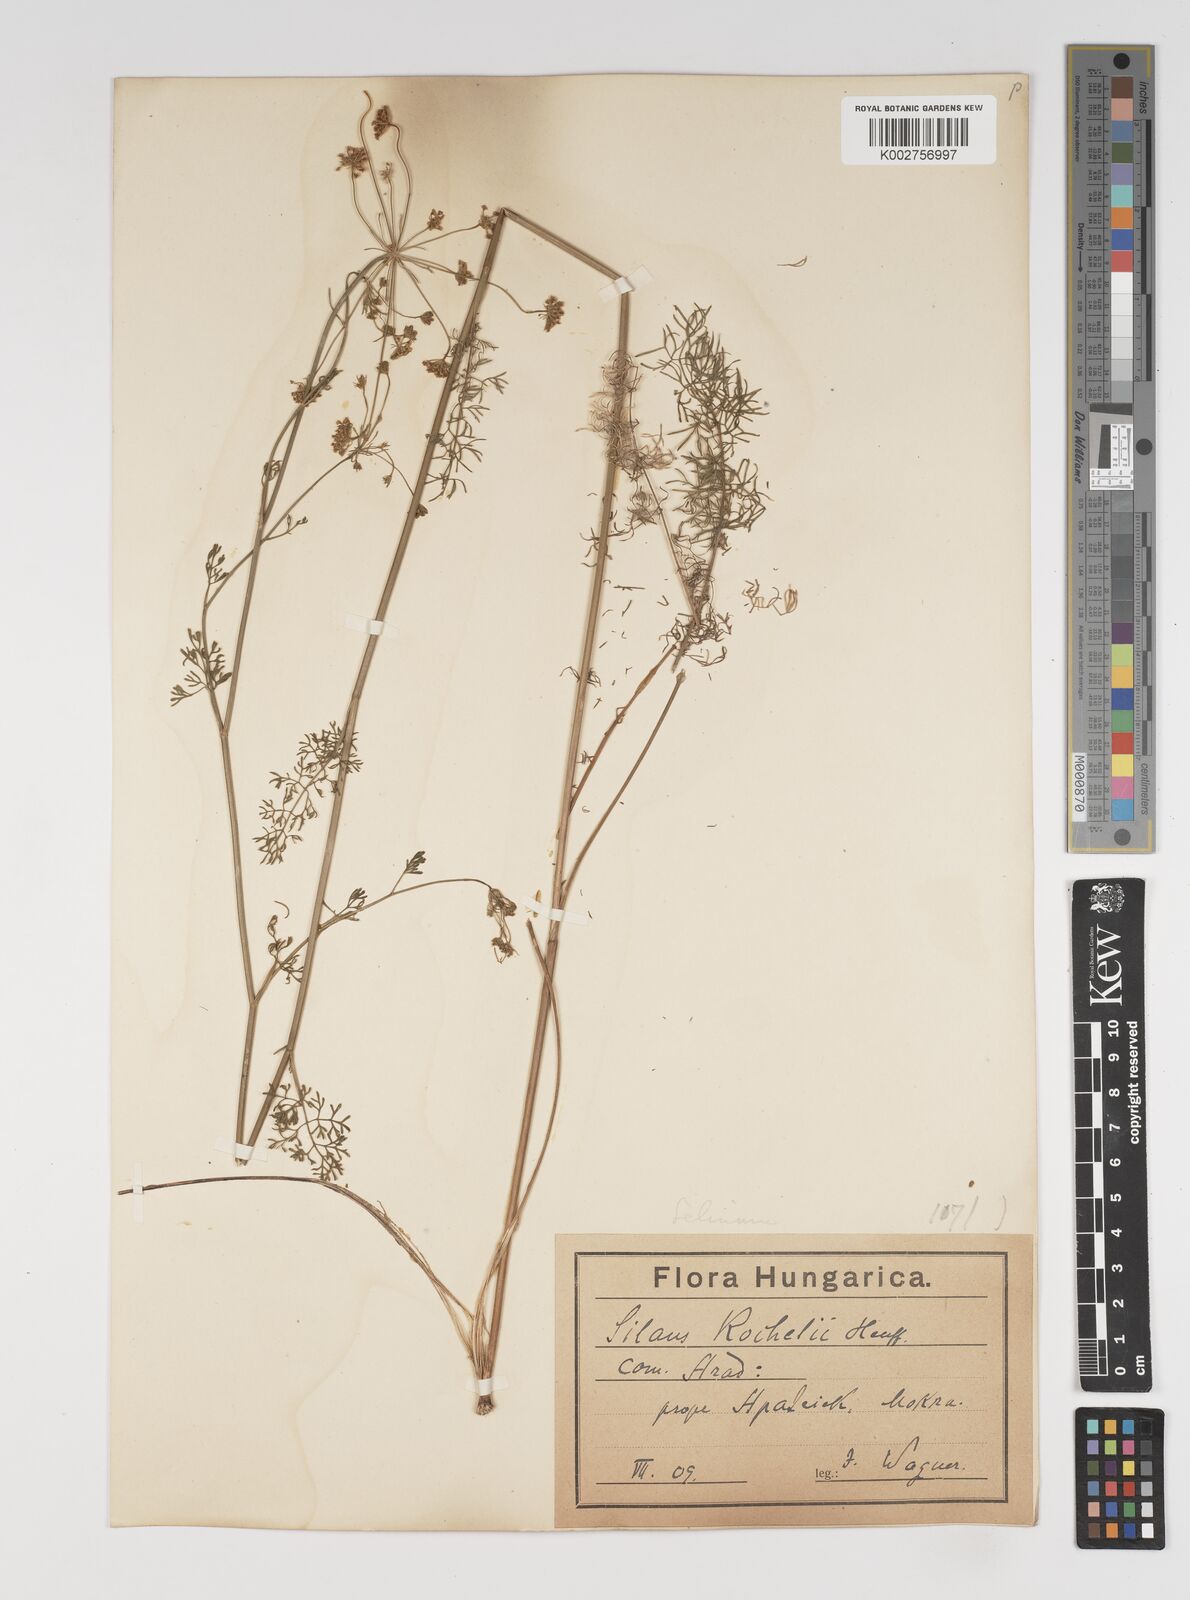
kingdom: Plantae
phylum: Tracheophyta
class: Magnoliopsida
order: Apiales
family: Apiaceae
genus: Gasparinia
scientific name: Gasparinia peucedanoides
